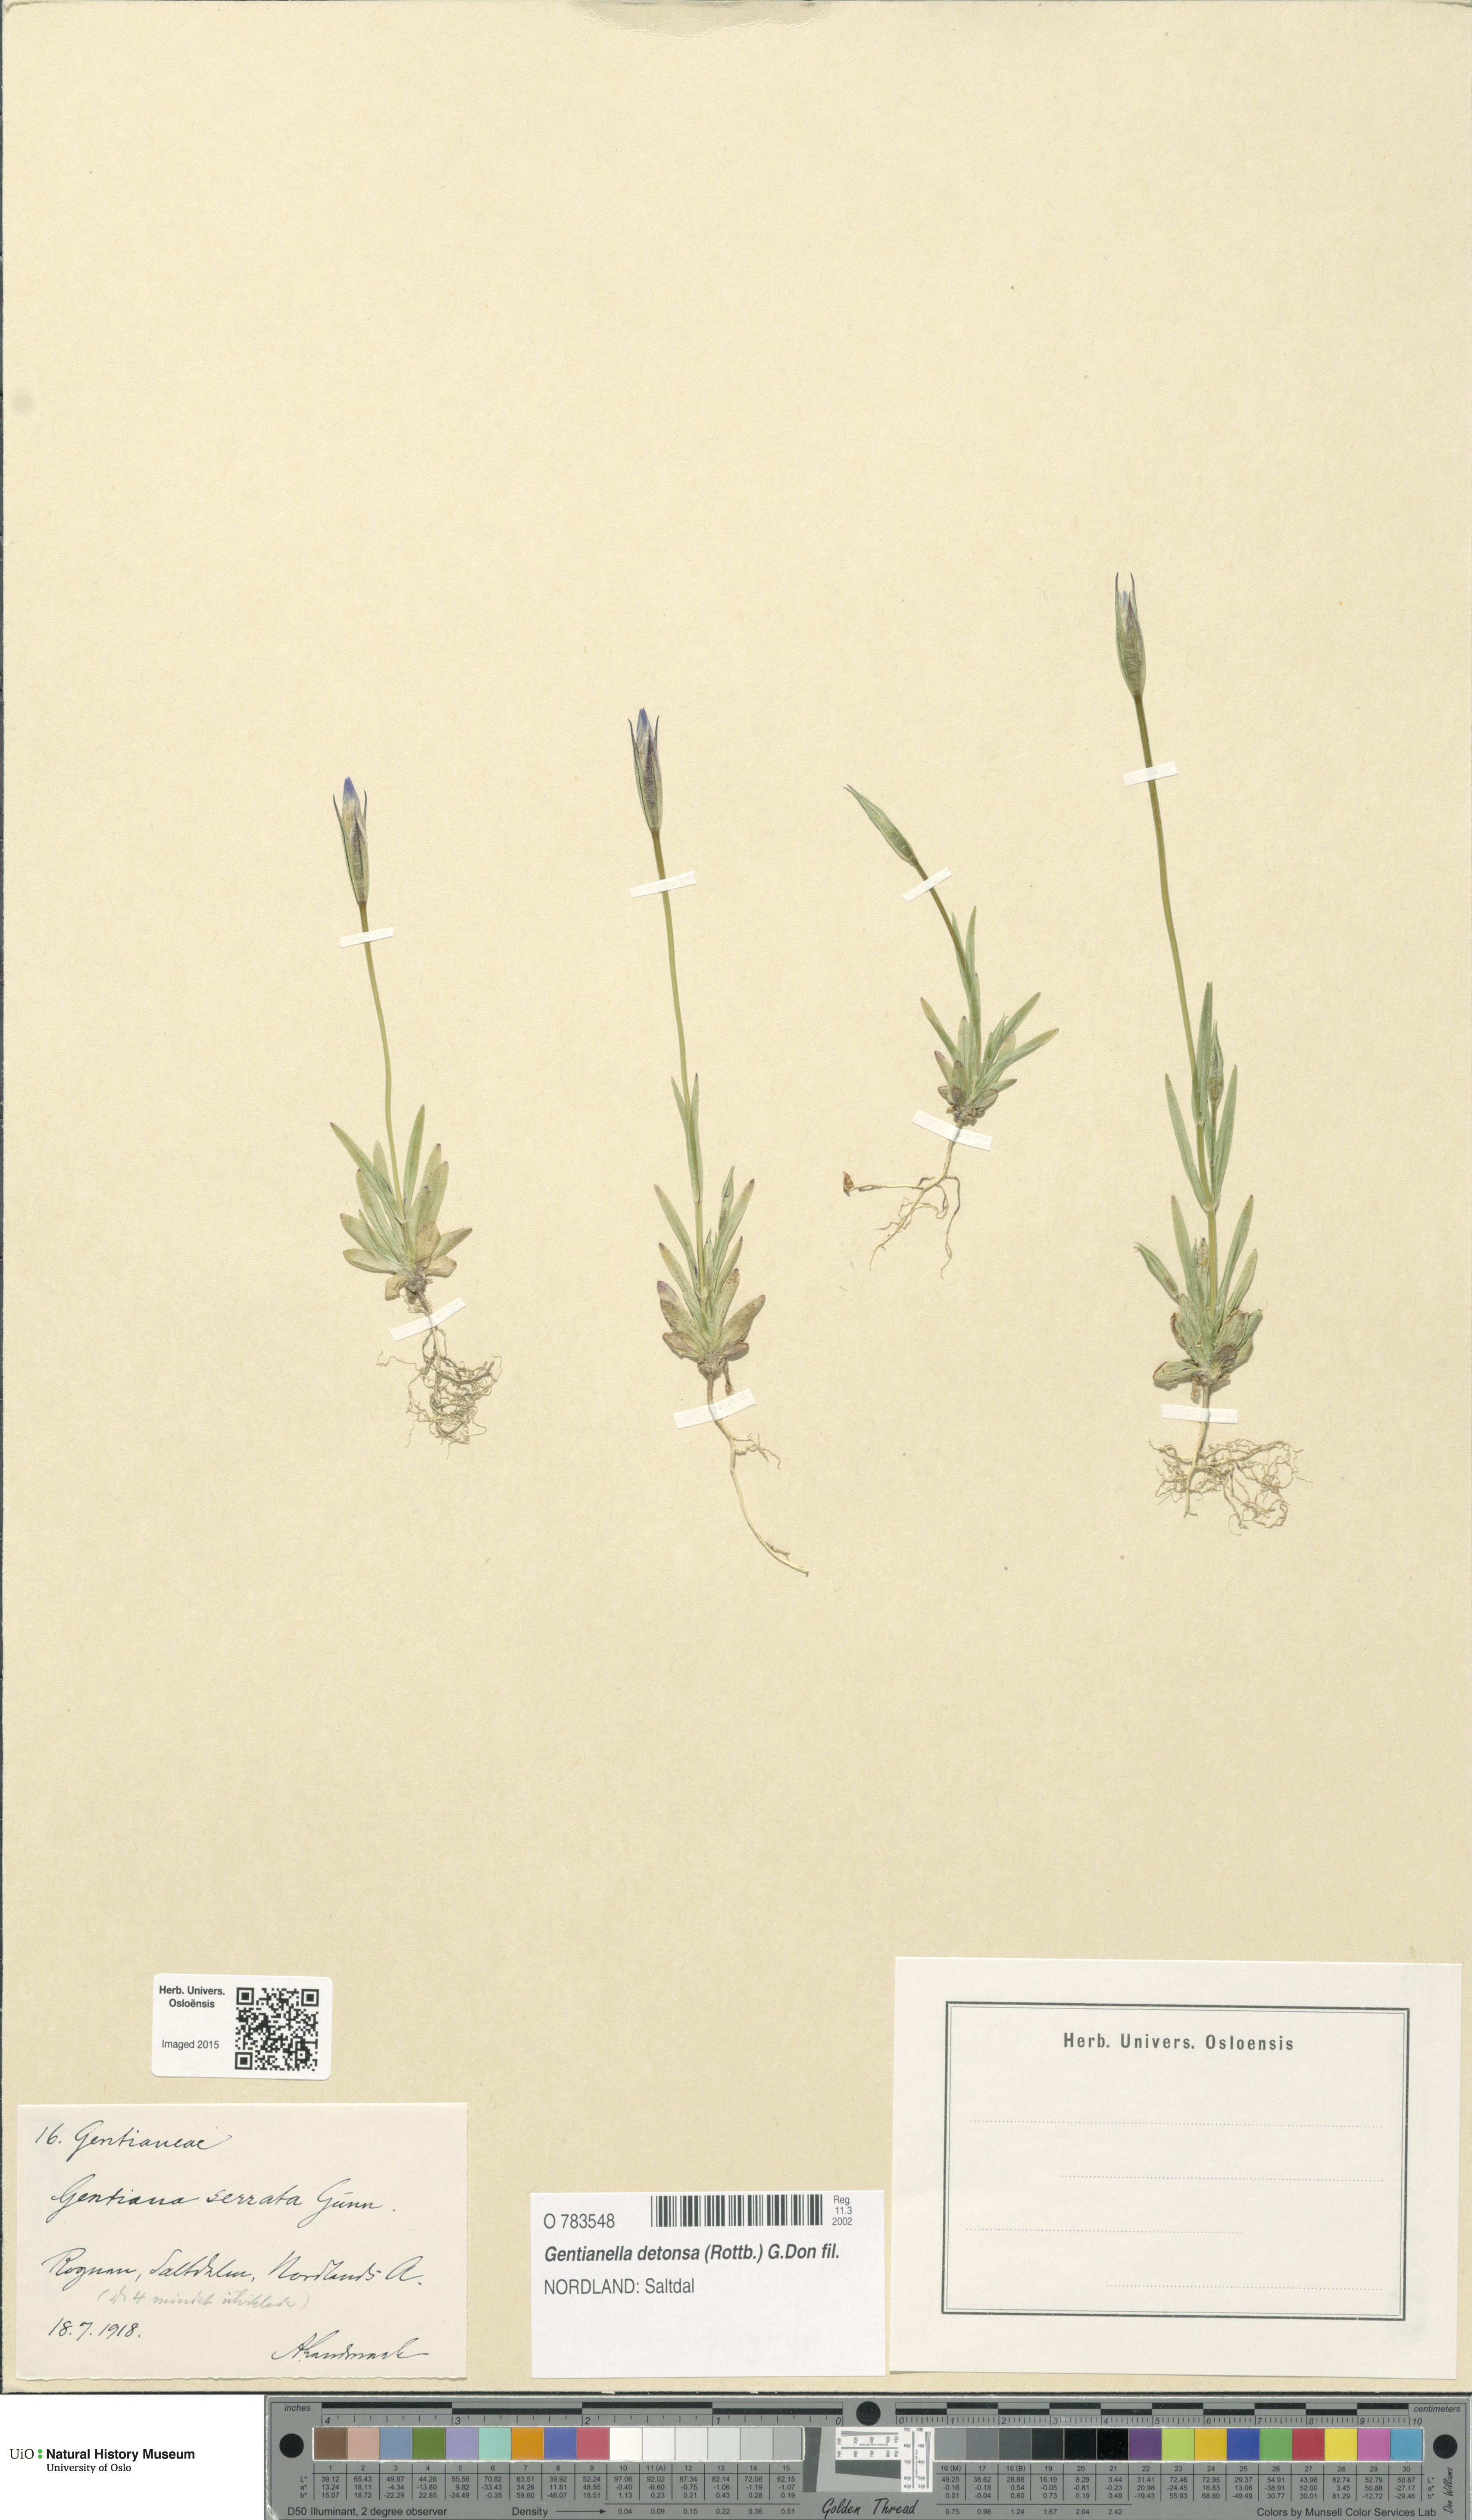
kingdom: Plantae
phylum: Tracheophyta
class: Magnoliopsida
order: Gentianales
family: Gentianaceae
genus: Gentianopsis
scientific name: Gentianopsis detonsa
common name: Fringed-gentian
